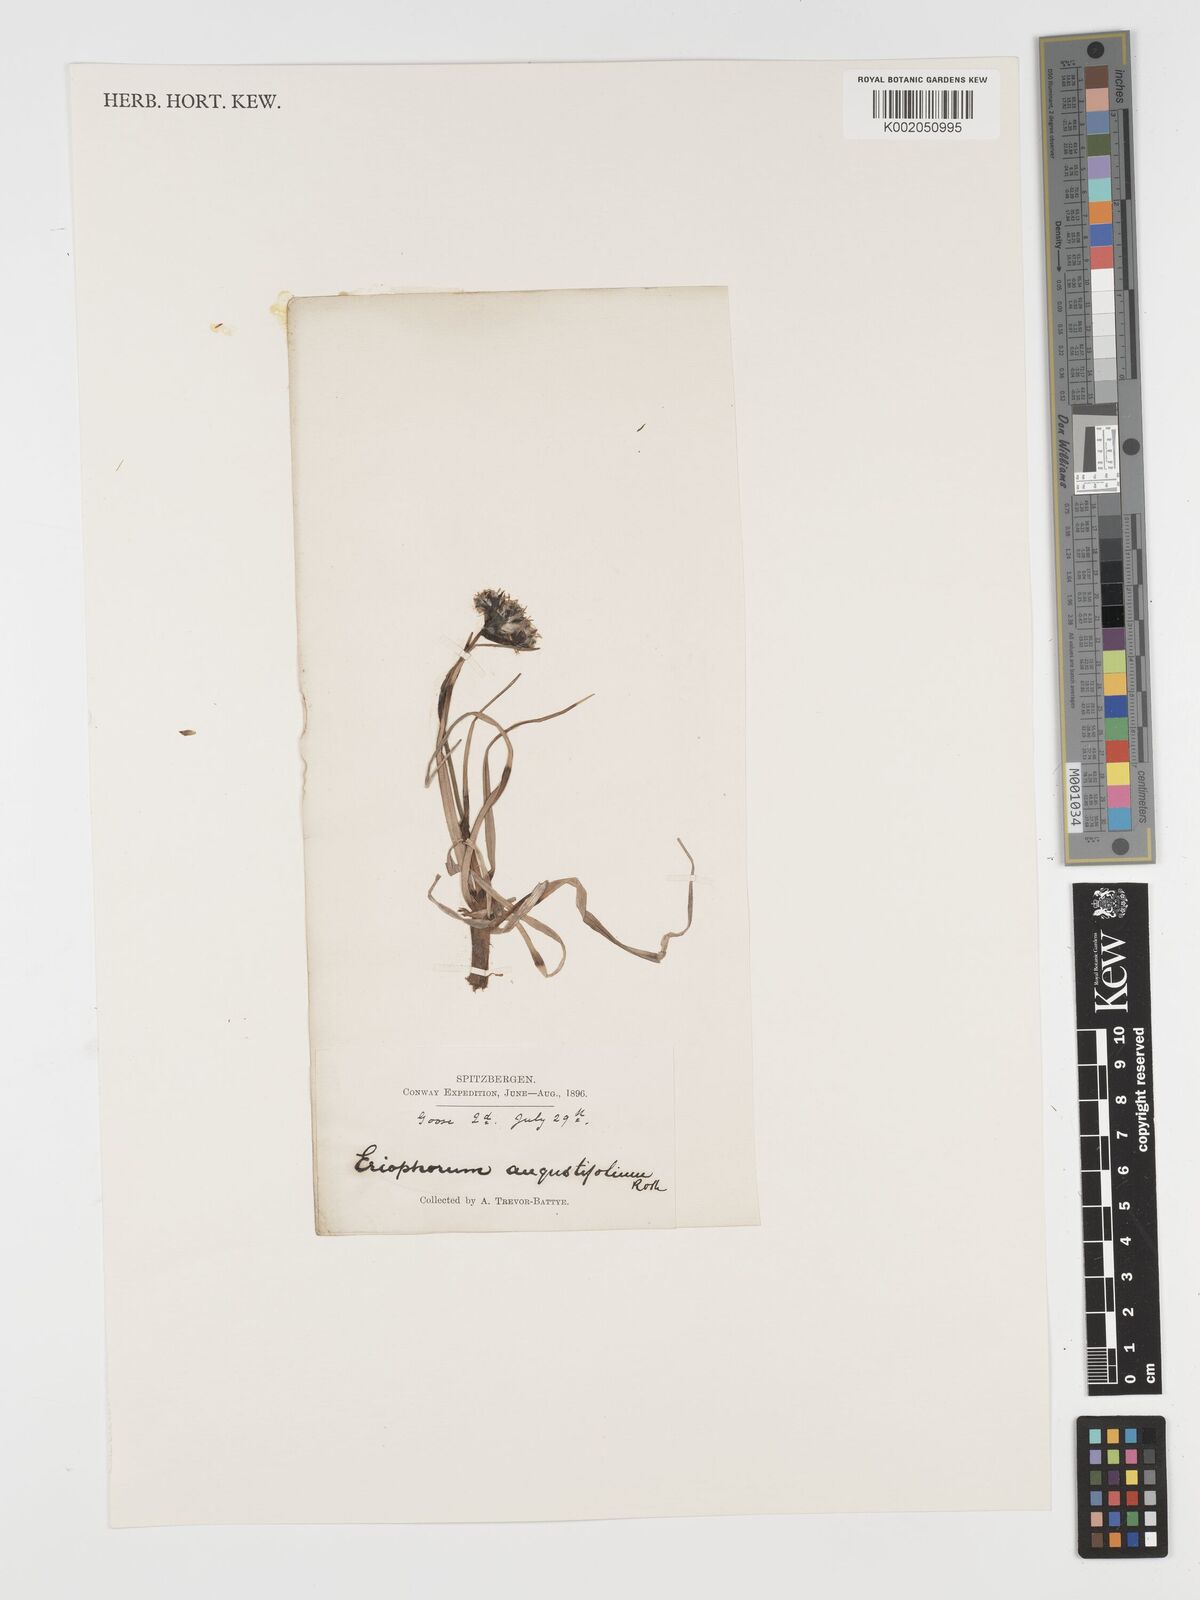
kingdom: Plantae
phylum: Tracheophyta
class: Liliopsida
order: Poales
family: Cyperaceae
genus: Eriophorum
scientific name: Eriophorum angustifolium
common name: Common cottongrass
